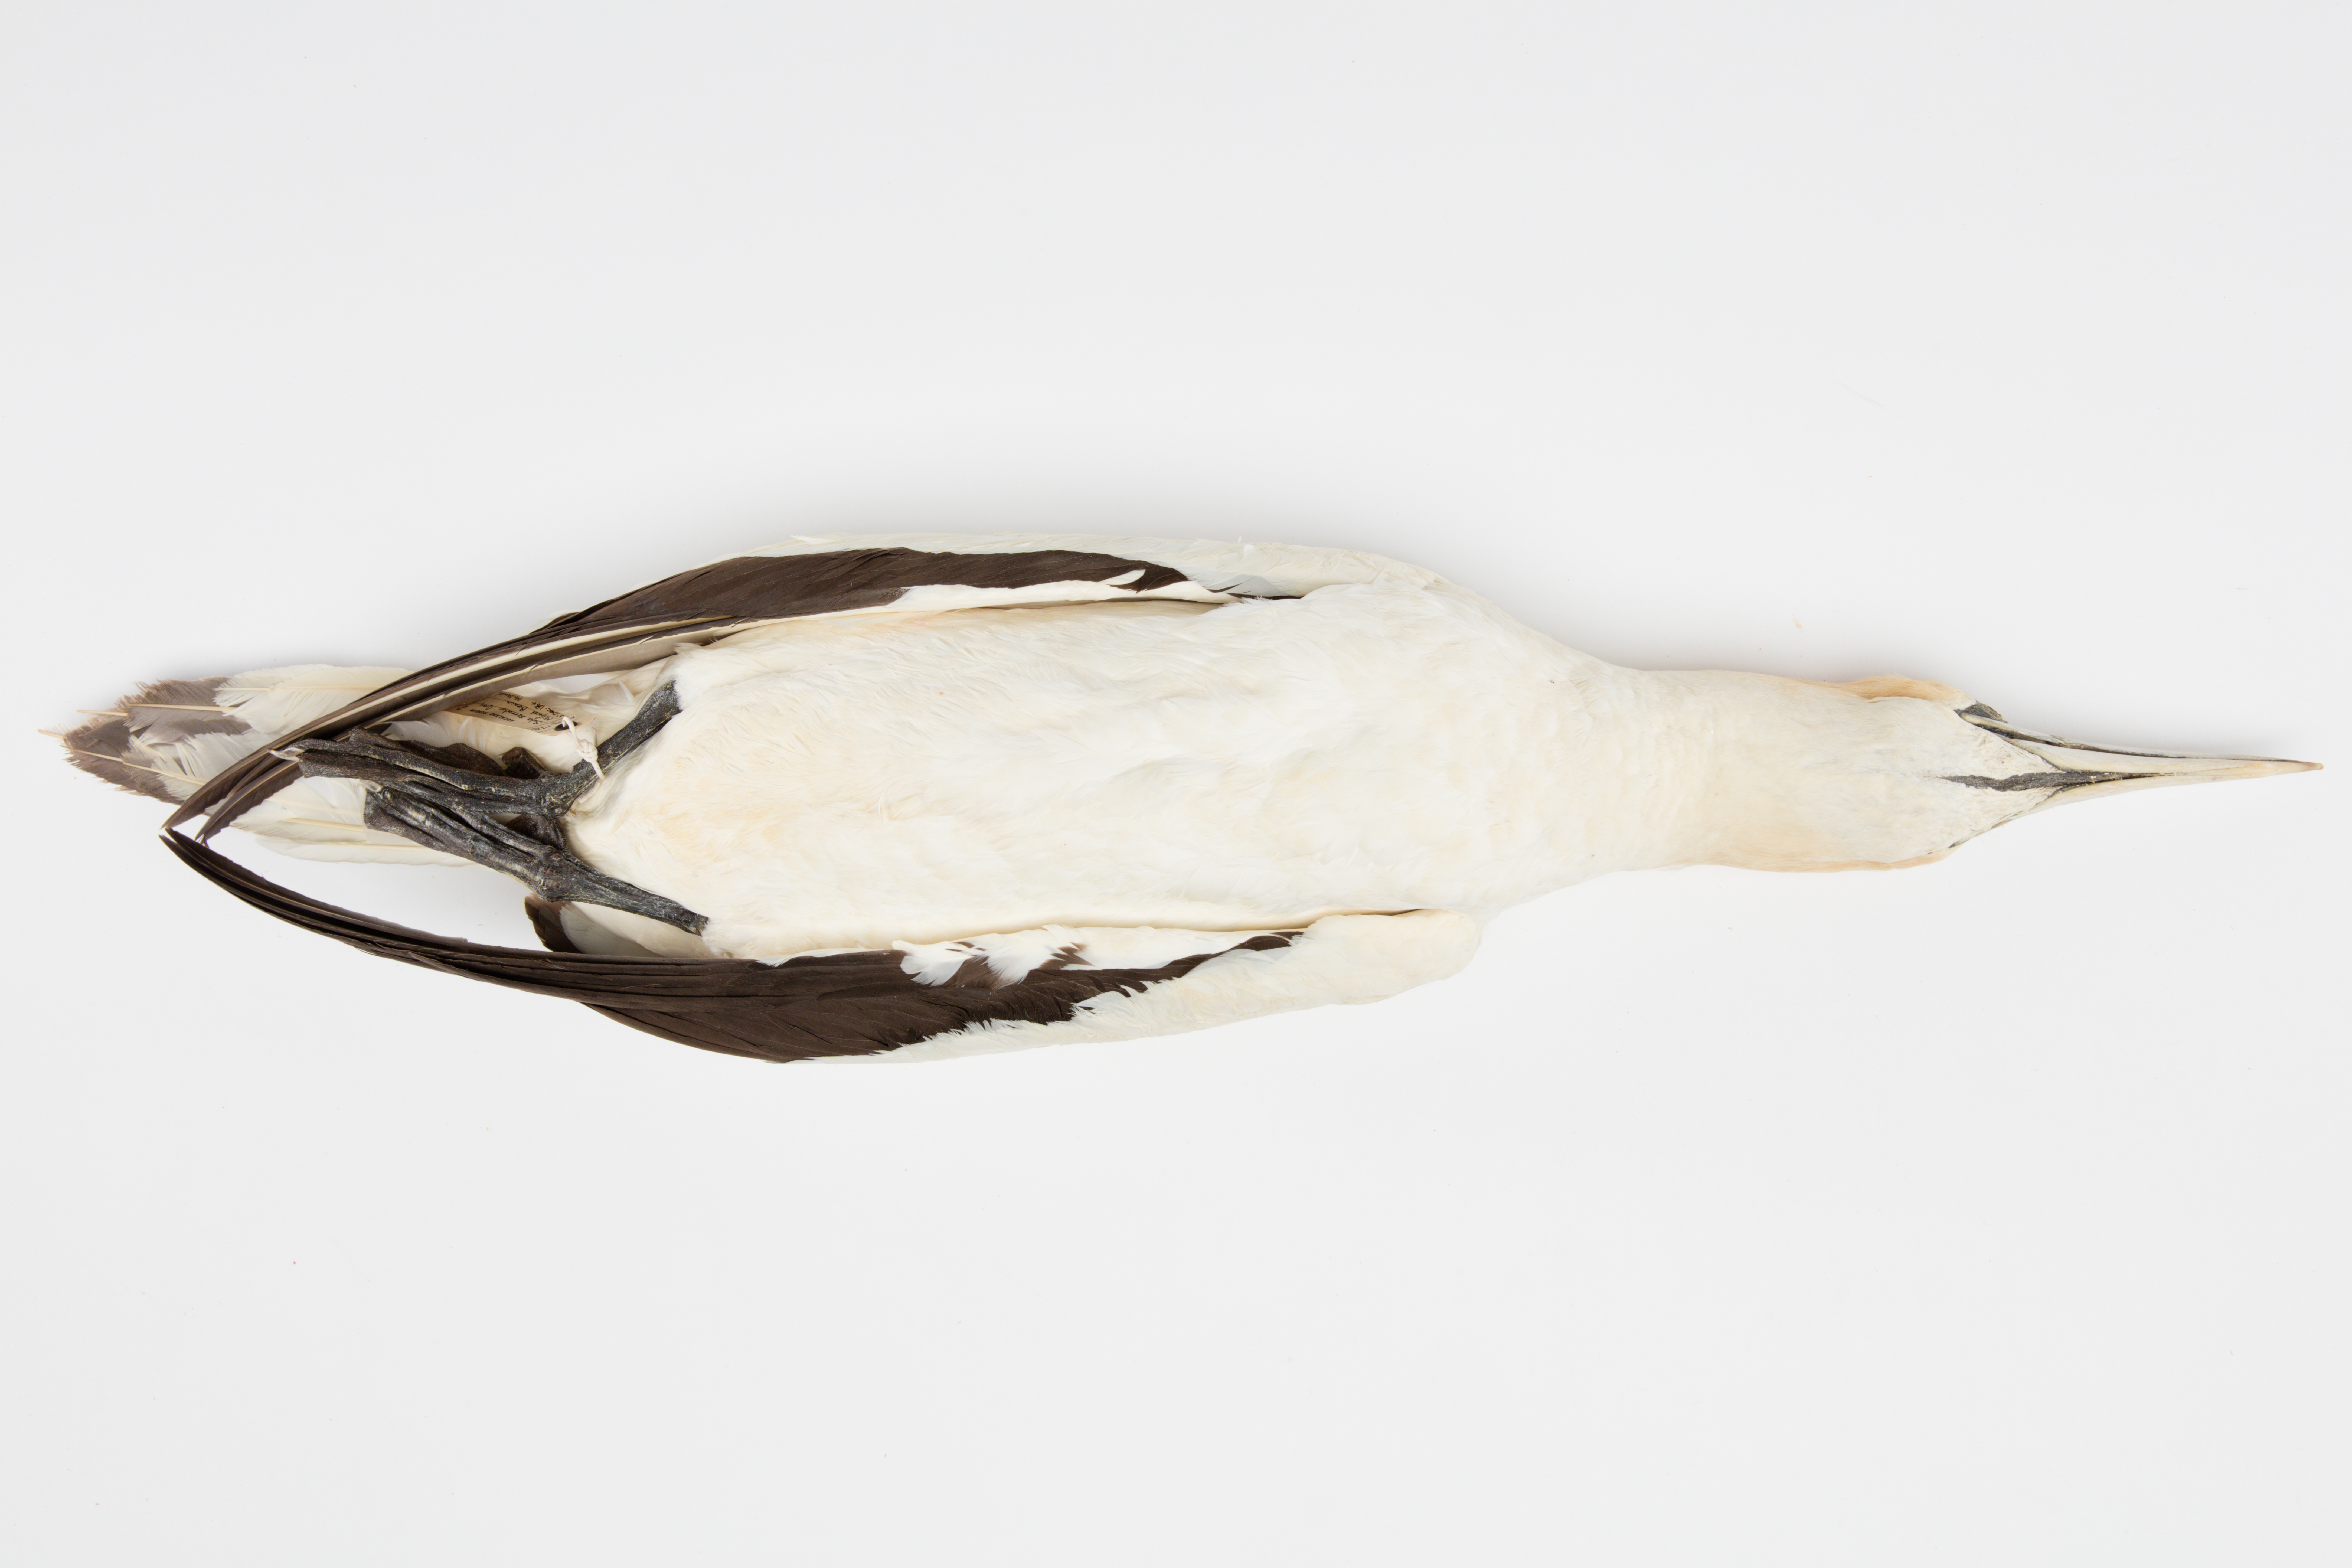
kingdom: Animalia
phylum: Chordata
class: Aves
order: Suliformes
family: Sulidae
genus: Morus
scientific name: Morus serrator
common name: Australasian gannet
